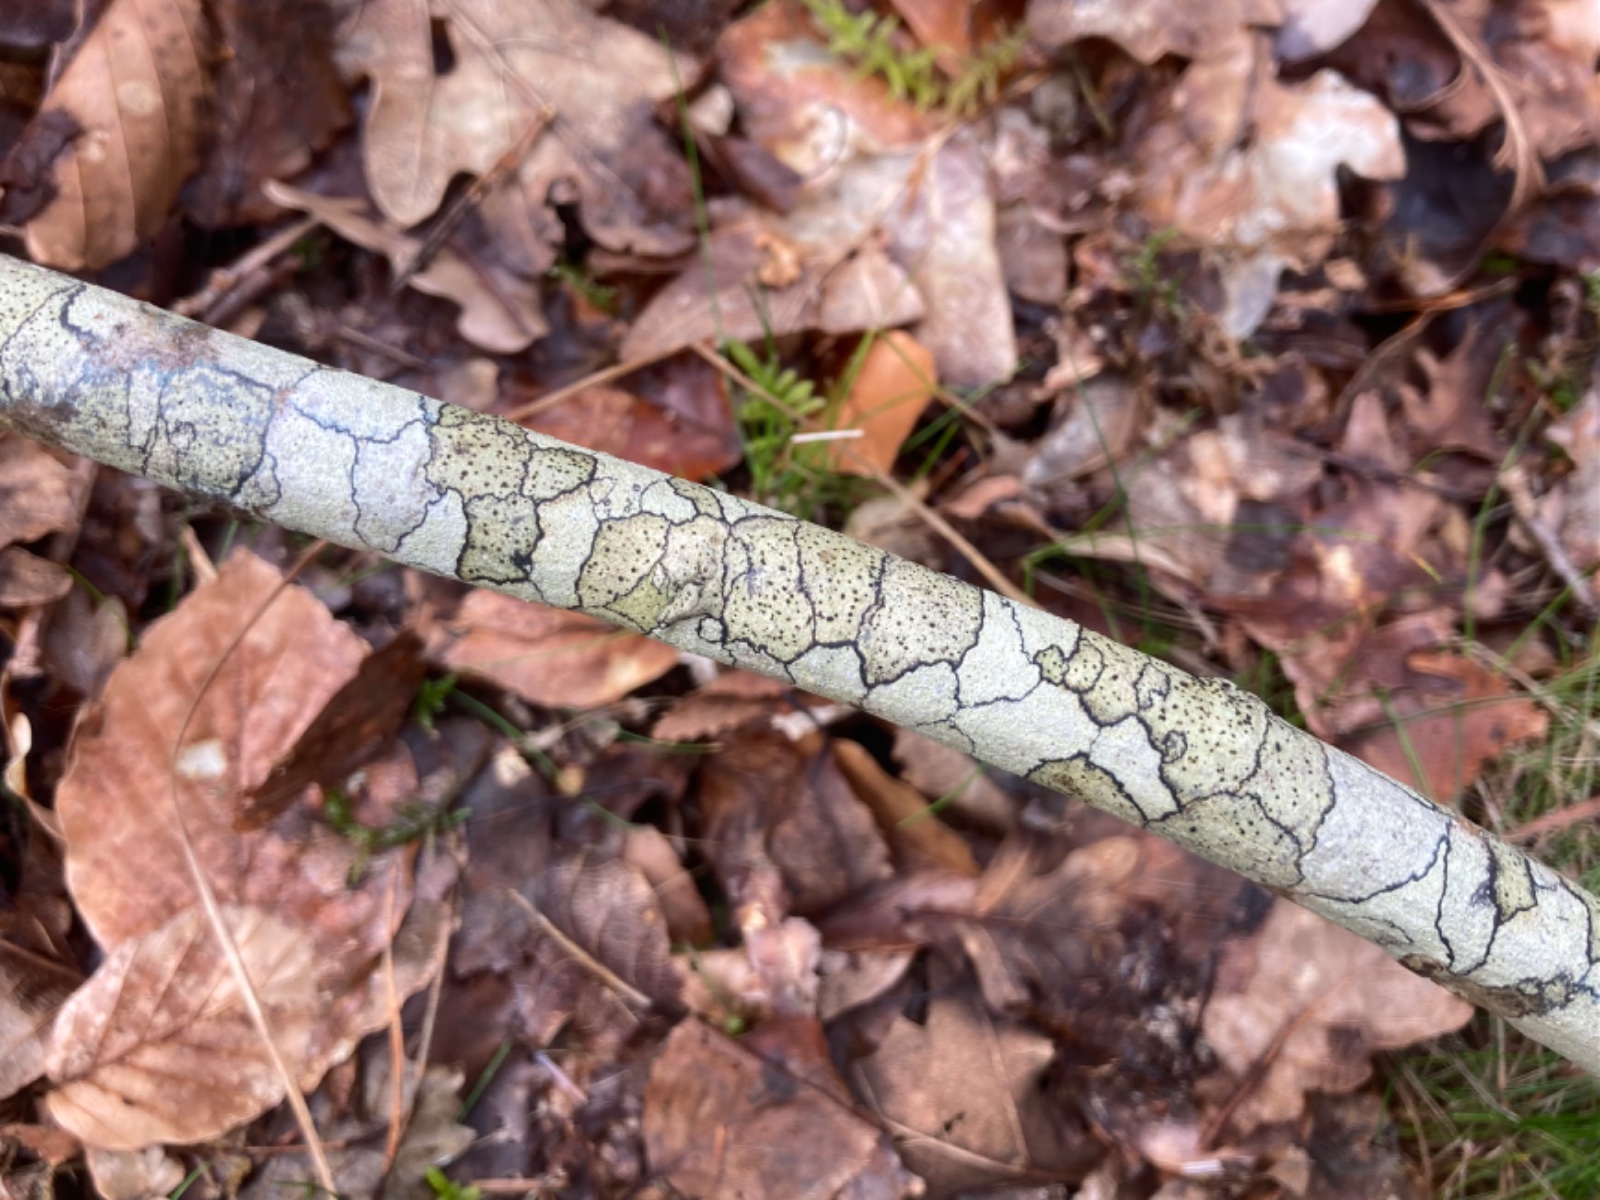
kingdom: Fungi
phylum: Ascomycota
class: Lecanoromycetes
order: Lecanorales
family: Lecanoraceae
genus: Lecidella
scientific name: Lecidella elaeochroma
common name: grågrøn skivelav
